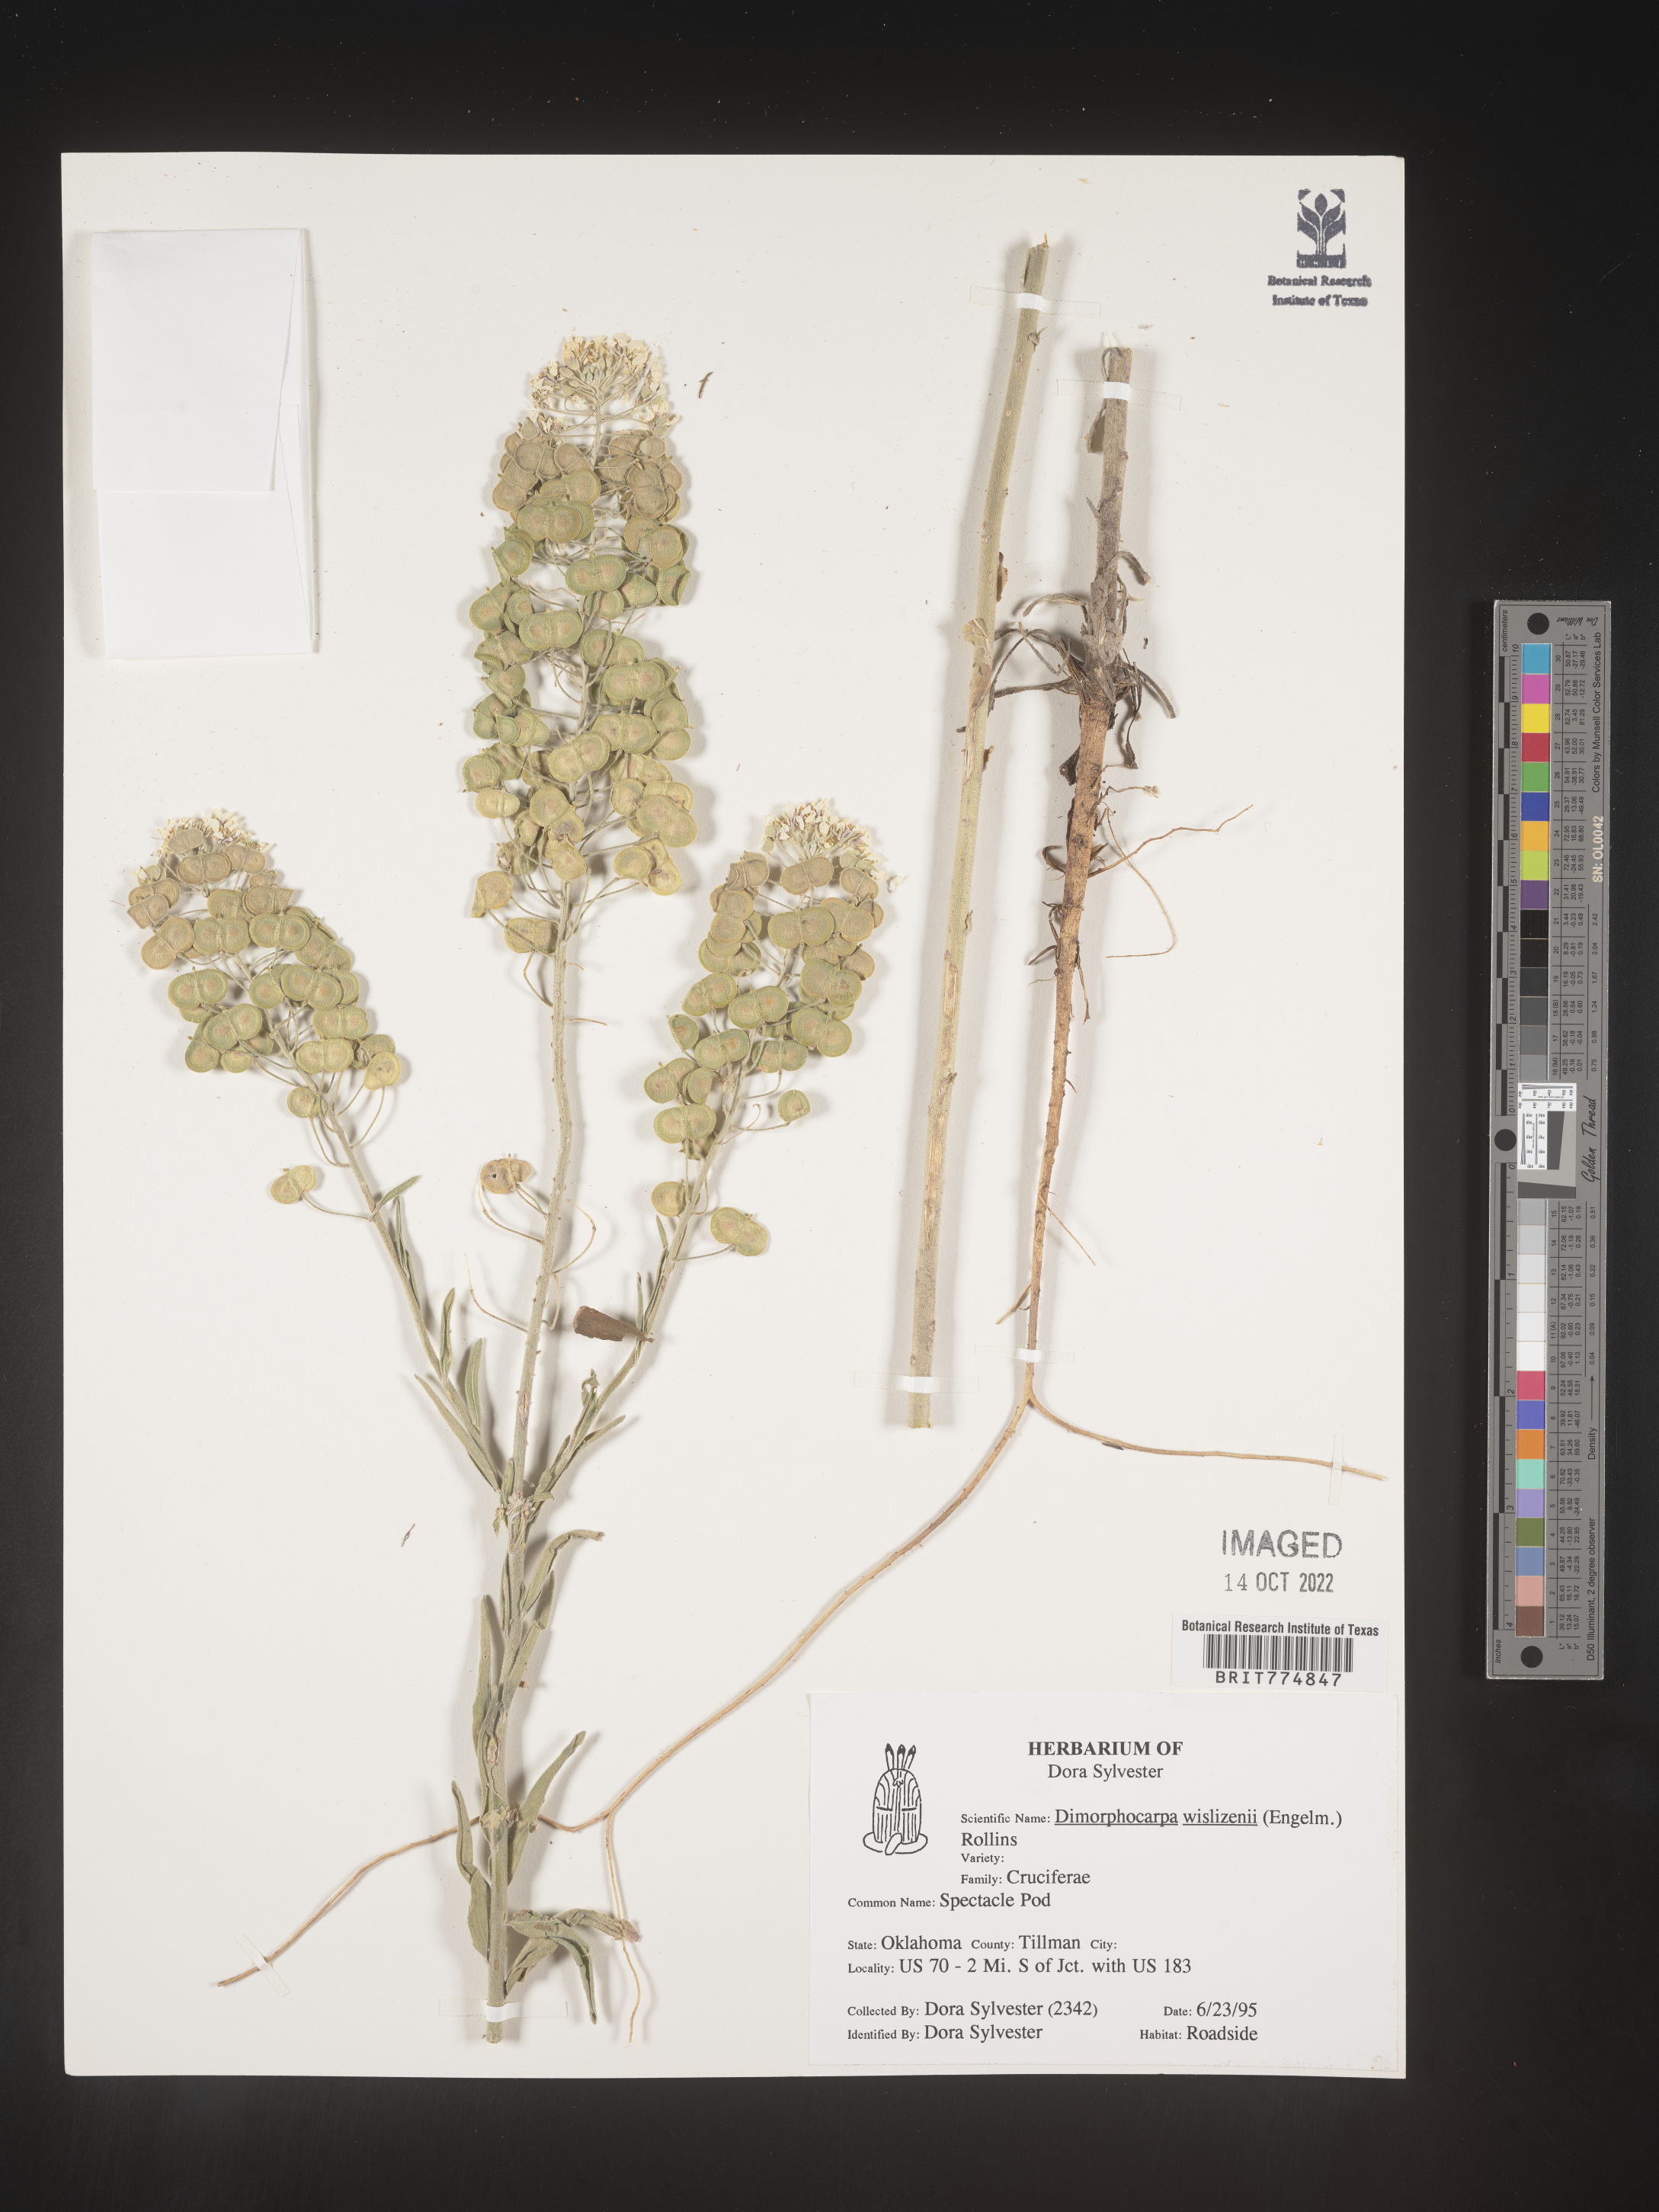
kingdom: Plantae
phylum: Tracheophyta
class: Magnoliopsida
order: Brassicales
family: Brassicaceae
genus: Dimorphocarpa
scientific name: Dimorphocarpa wislizenii
